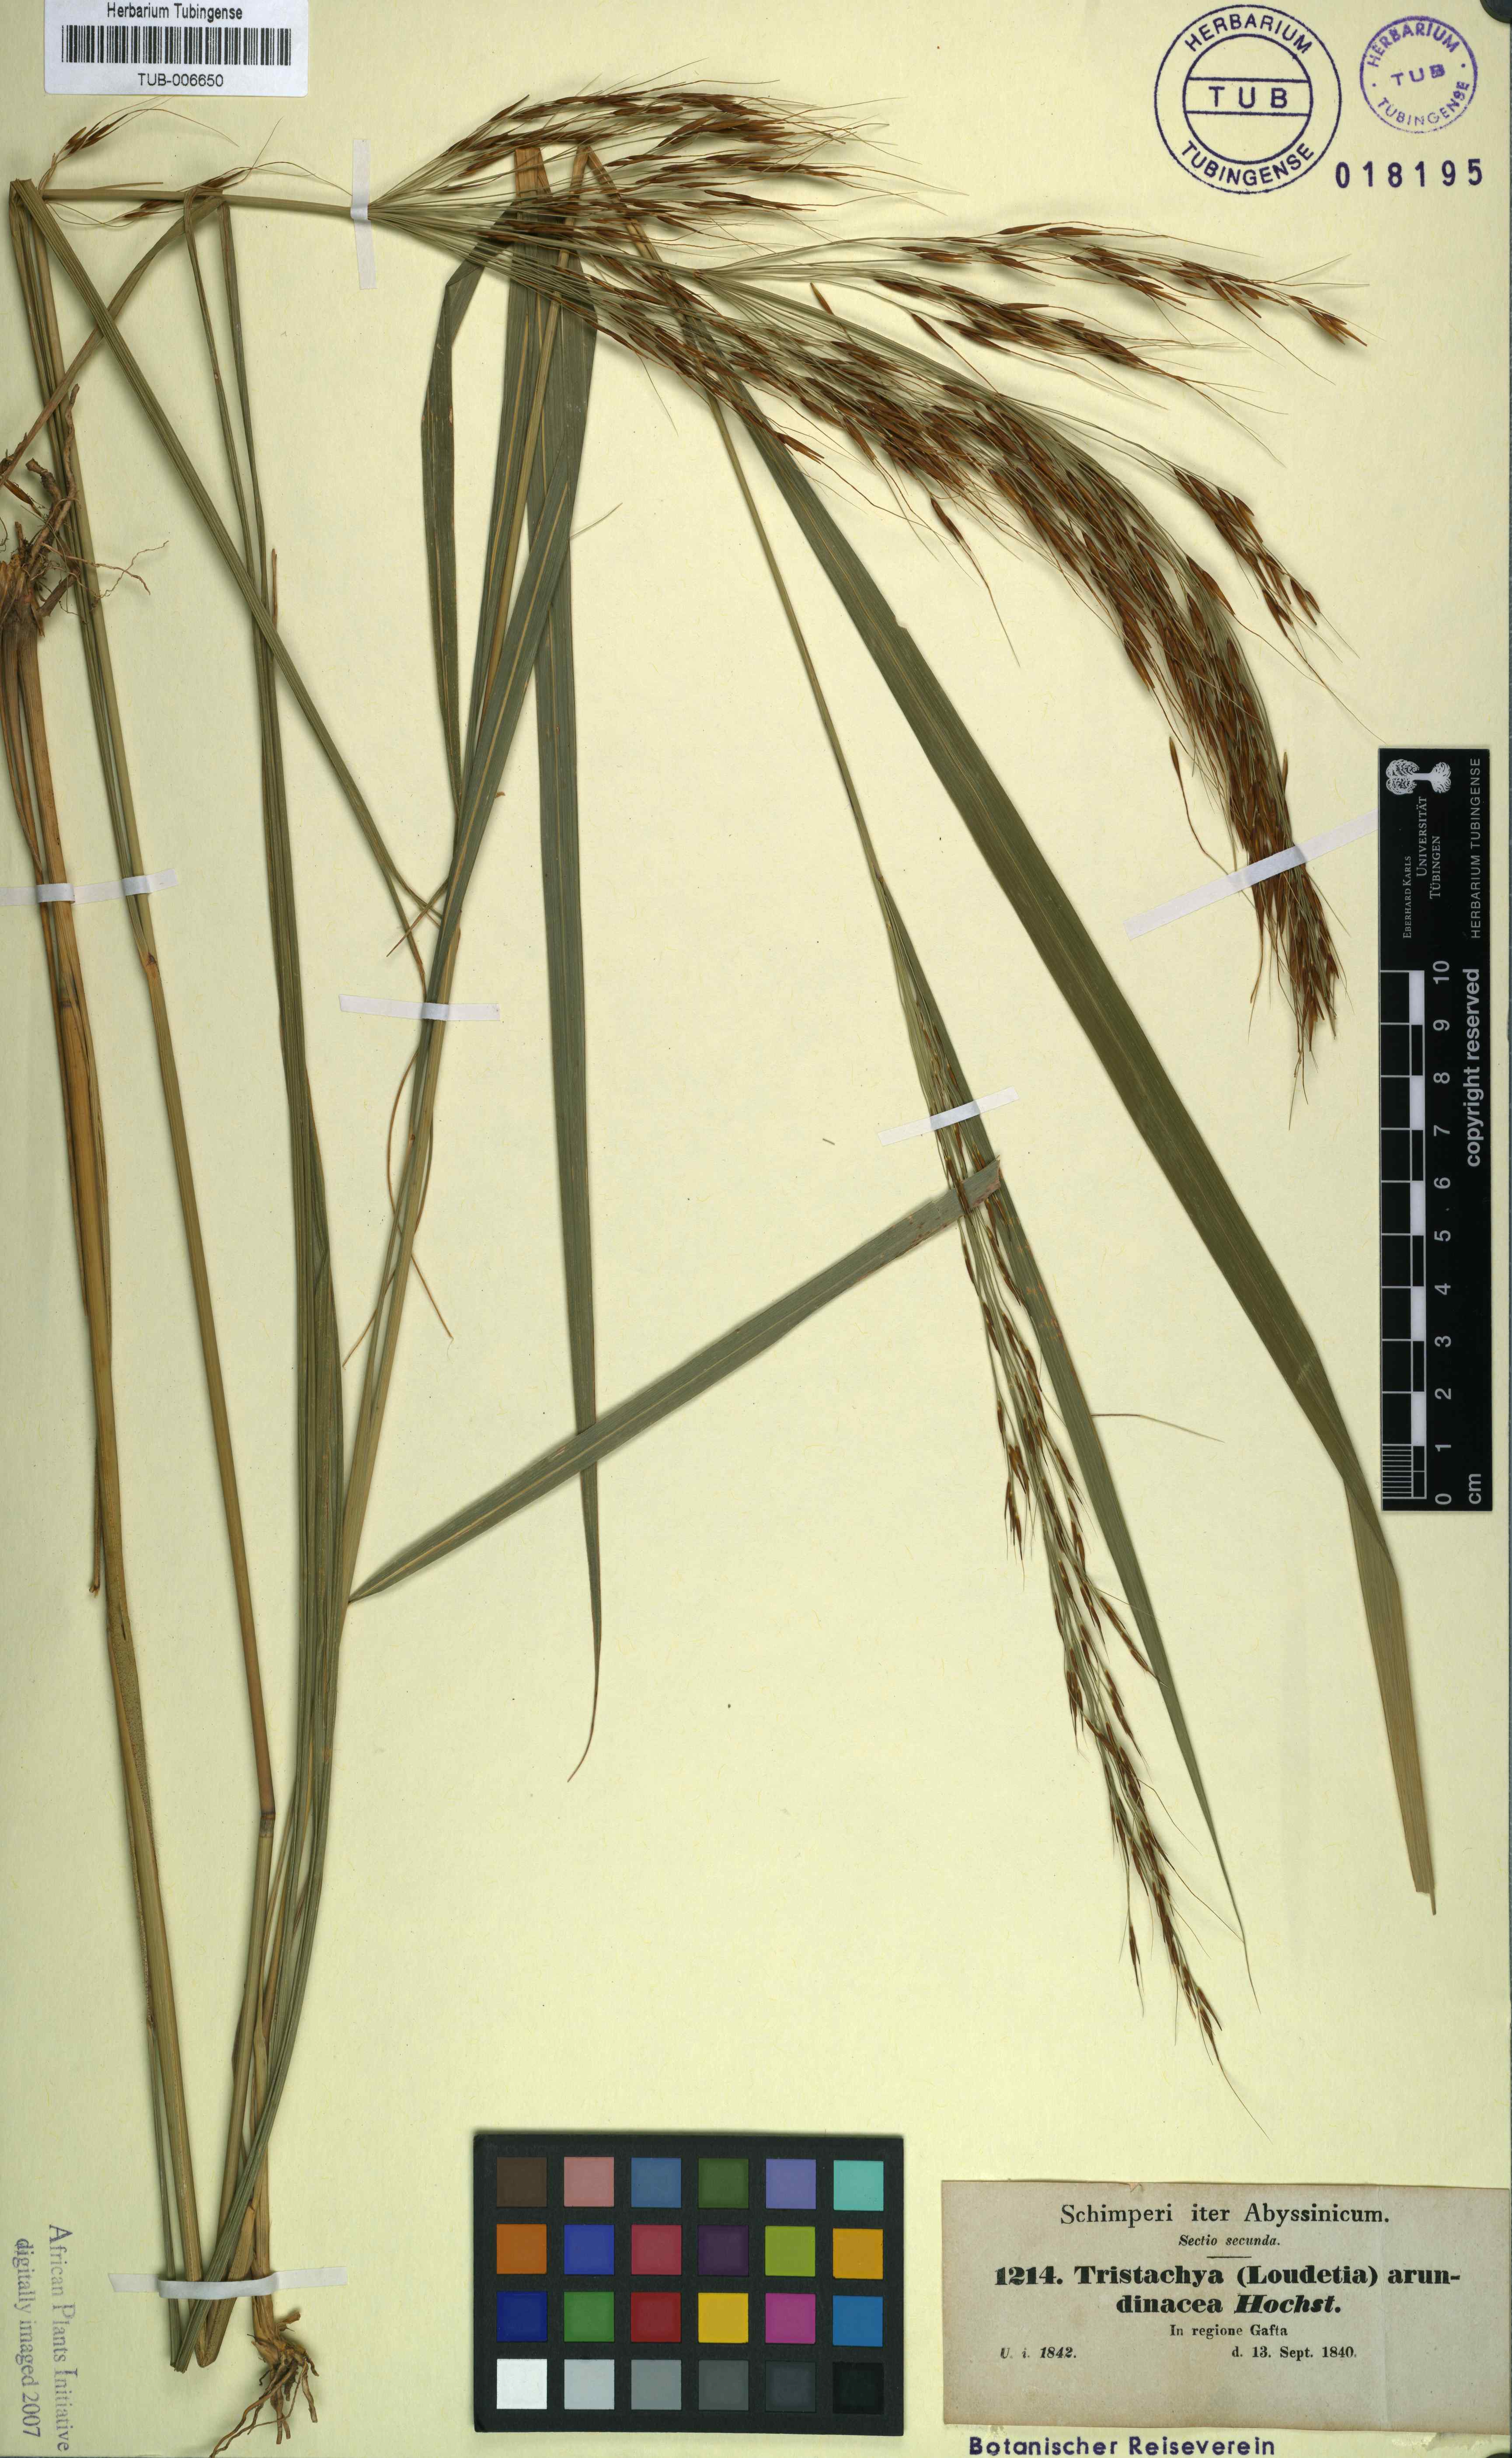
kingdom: Plantae
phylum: Tracheophyta
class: Liliopsida
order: Poales
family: Poaceae
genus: Loudetia
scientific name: Loudetia arundinacea
